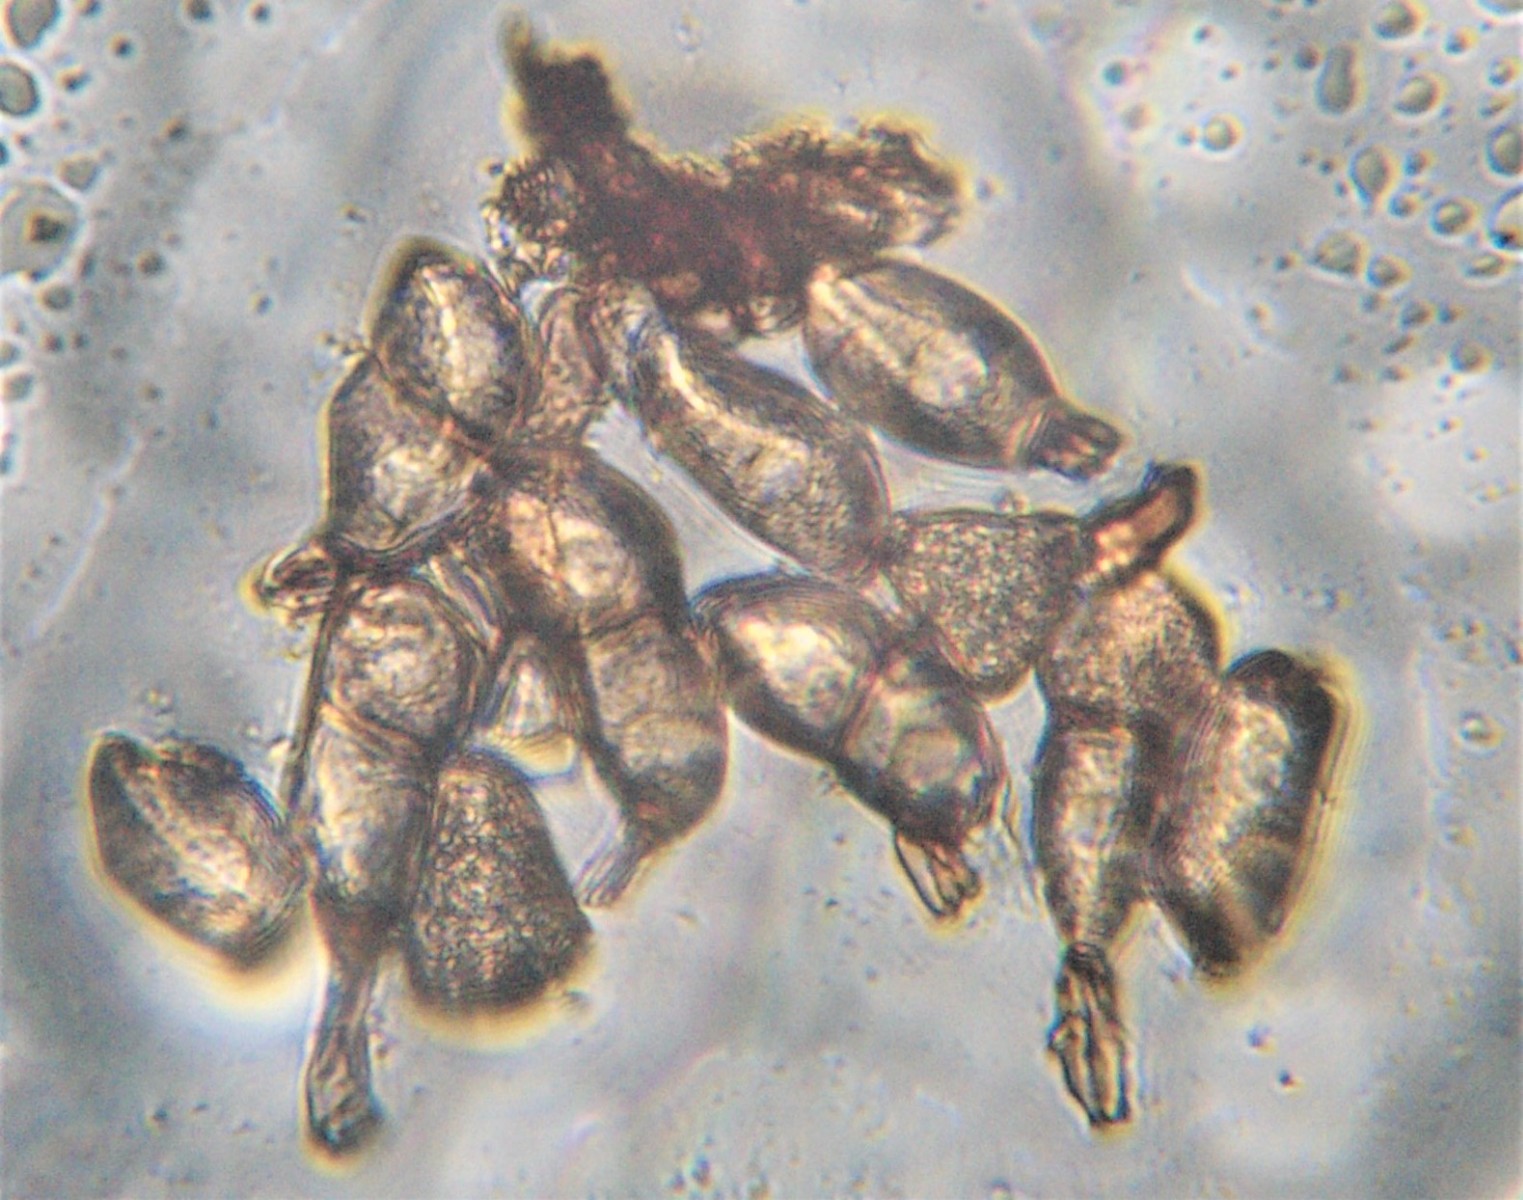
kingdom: Fungi
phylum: Basidiomycota
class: Pucciniomycetes
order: Pucciniales
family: Pucciniaceae
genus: Peristemma
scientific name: Peristemma pseudosphaeria
